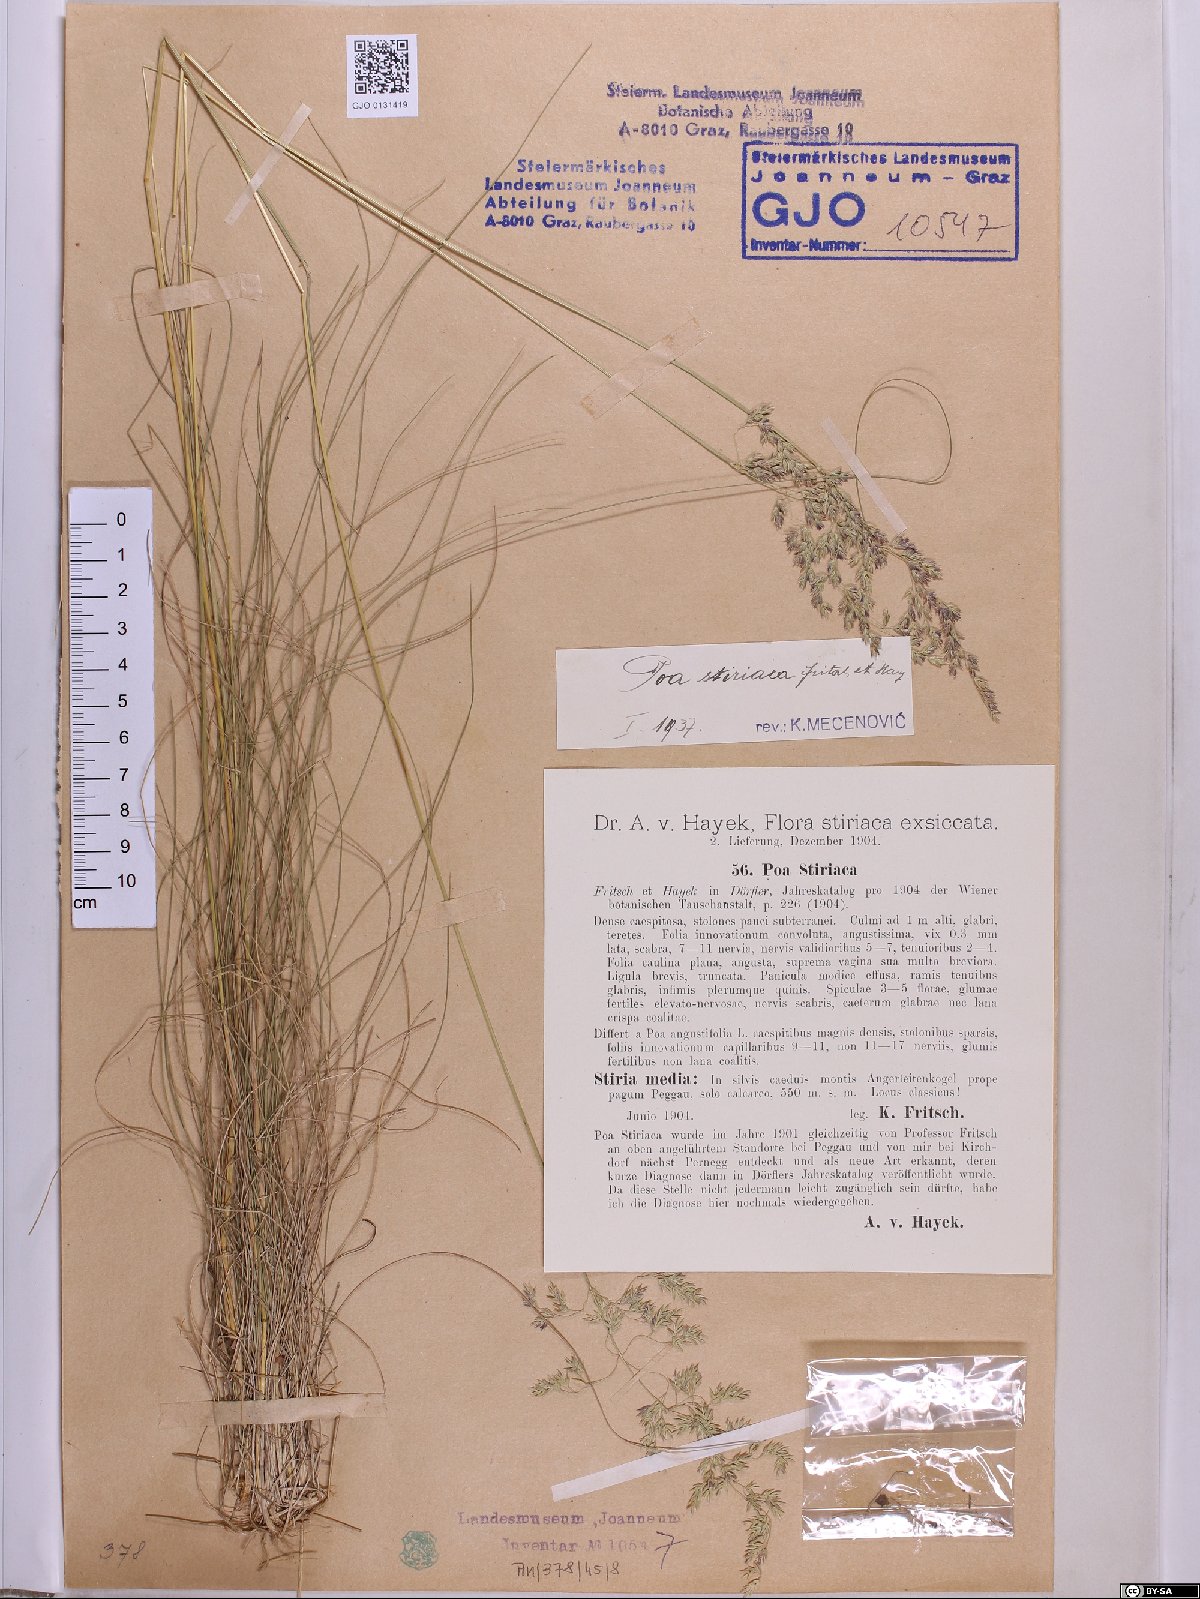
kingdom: Plantae
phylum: Tracheophyta
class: Liliopsida
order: Poales
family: Poaceae
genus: Poa
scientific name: Poa stiriaca
